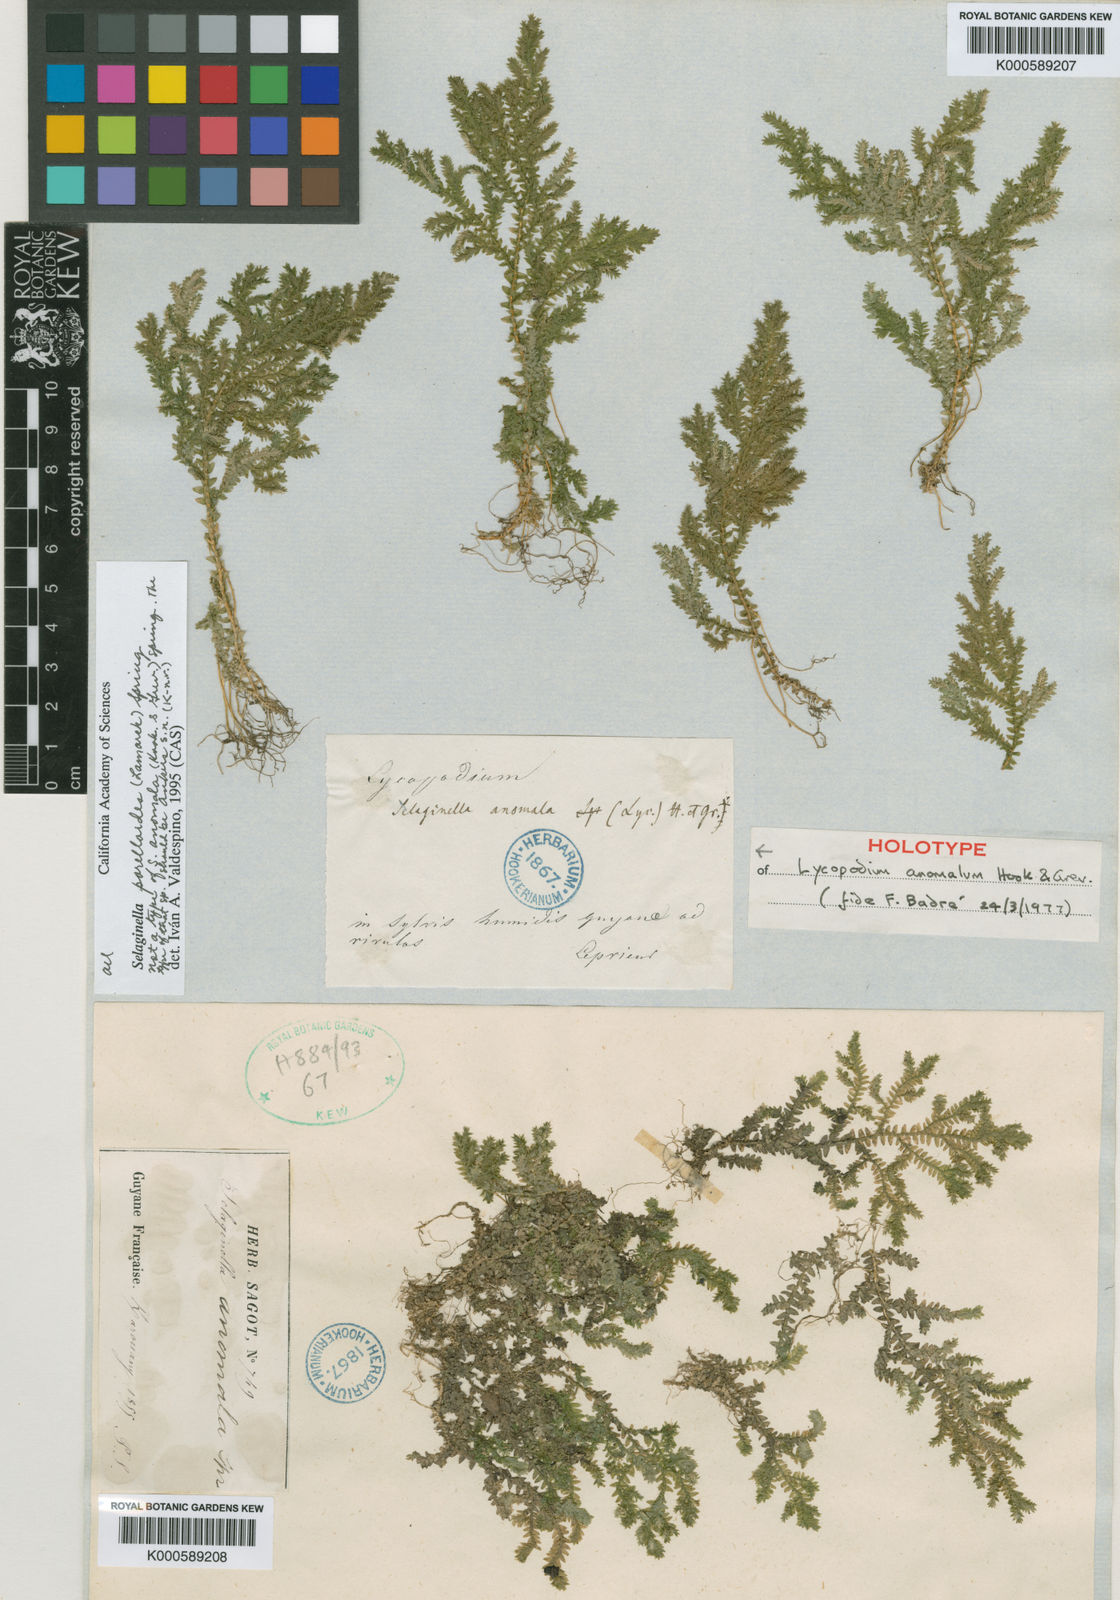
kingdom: Plantae
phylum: Tracheophyta
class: Lycopodiopsida
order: Selaginellales
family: Selaginellaceae
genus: Selaginella
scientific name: Selaginella porelloides
